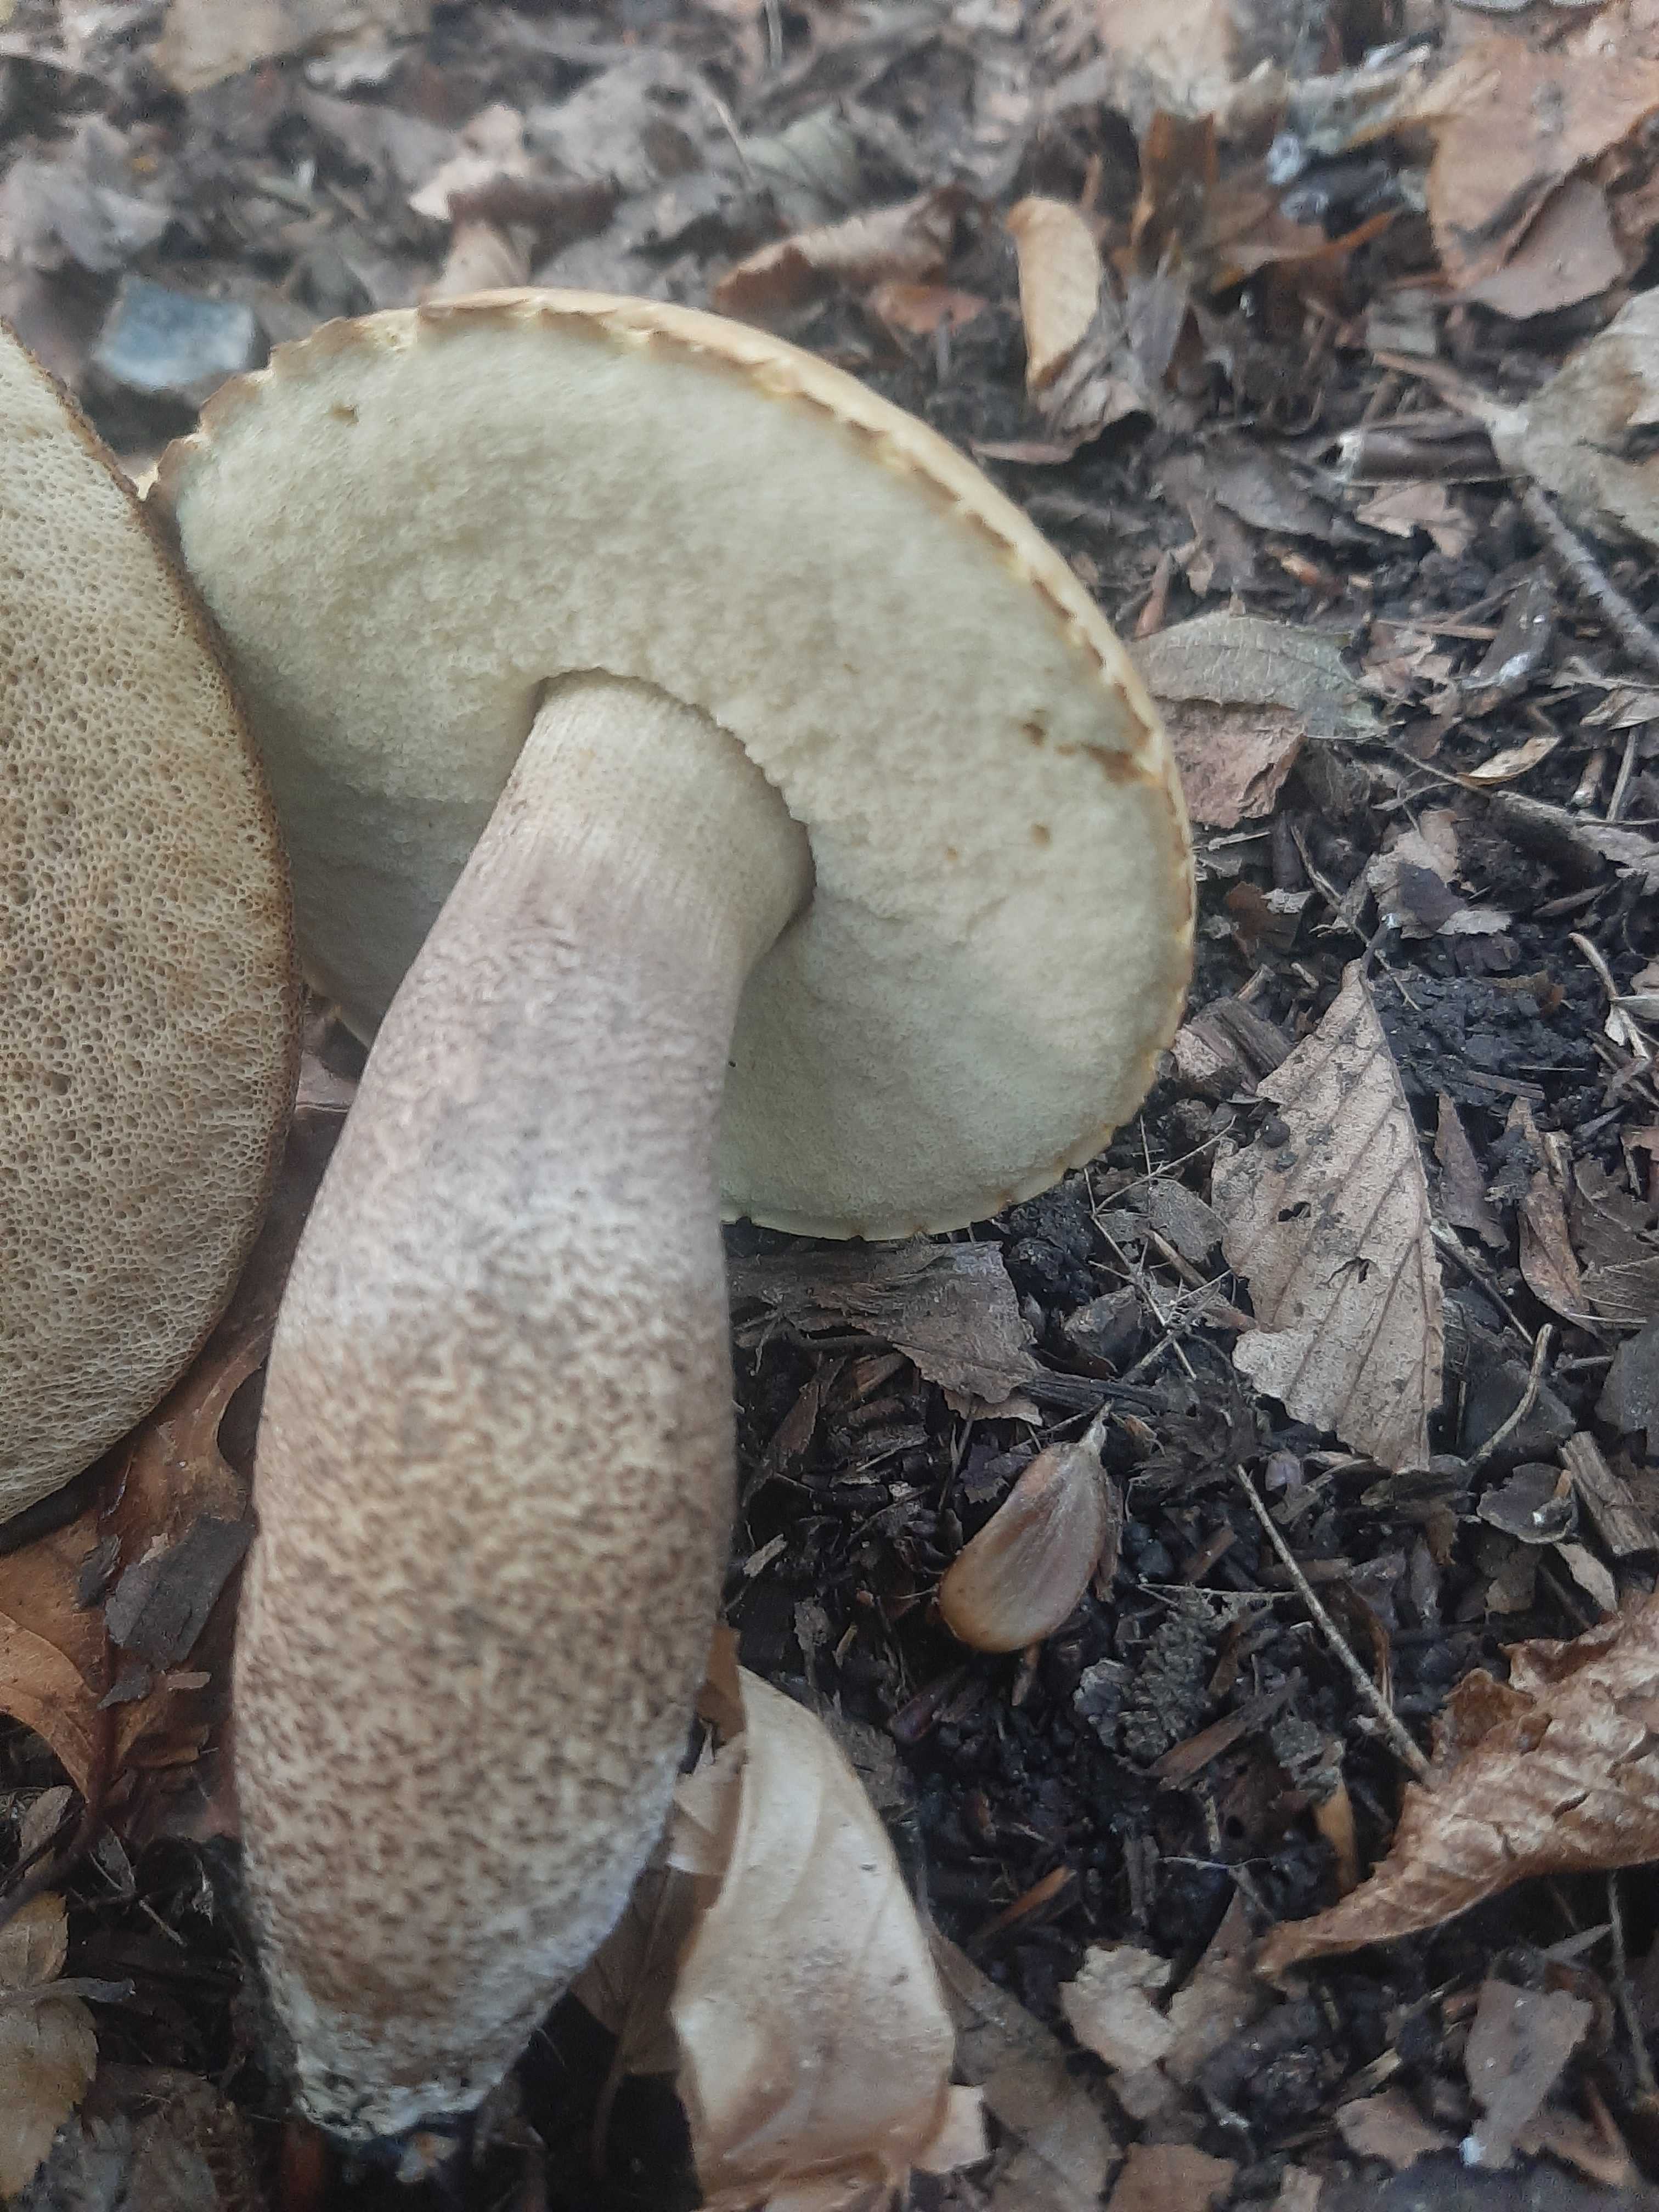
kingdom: Fungi
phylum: Basidiomycota
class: Agaricomycetes
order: Boletales
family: Boletaceae
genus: Leccinum
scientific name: Leccinum duriusculum
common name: poppel-skælrørhat
